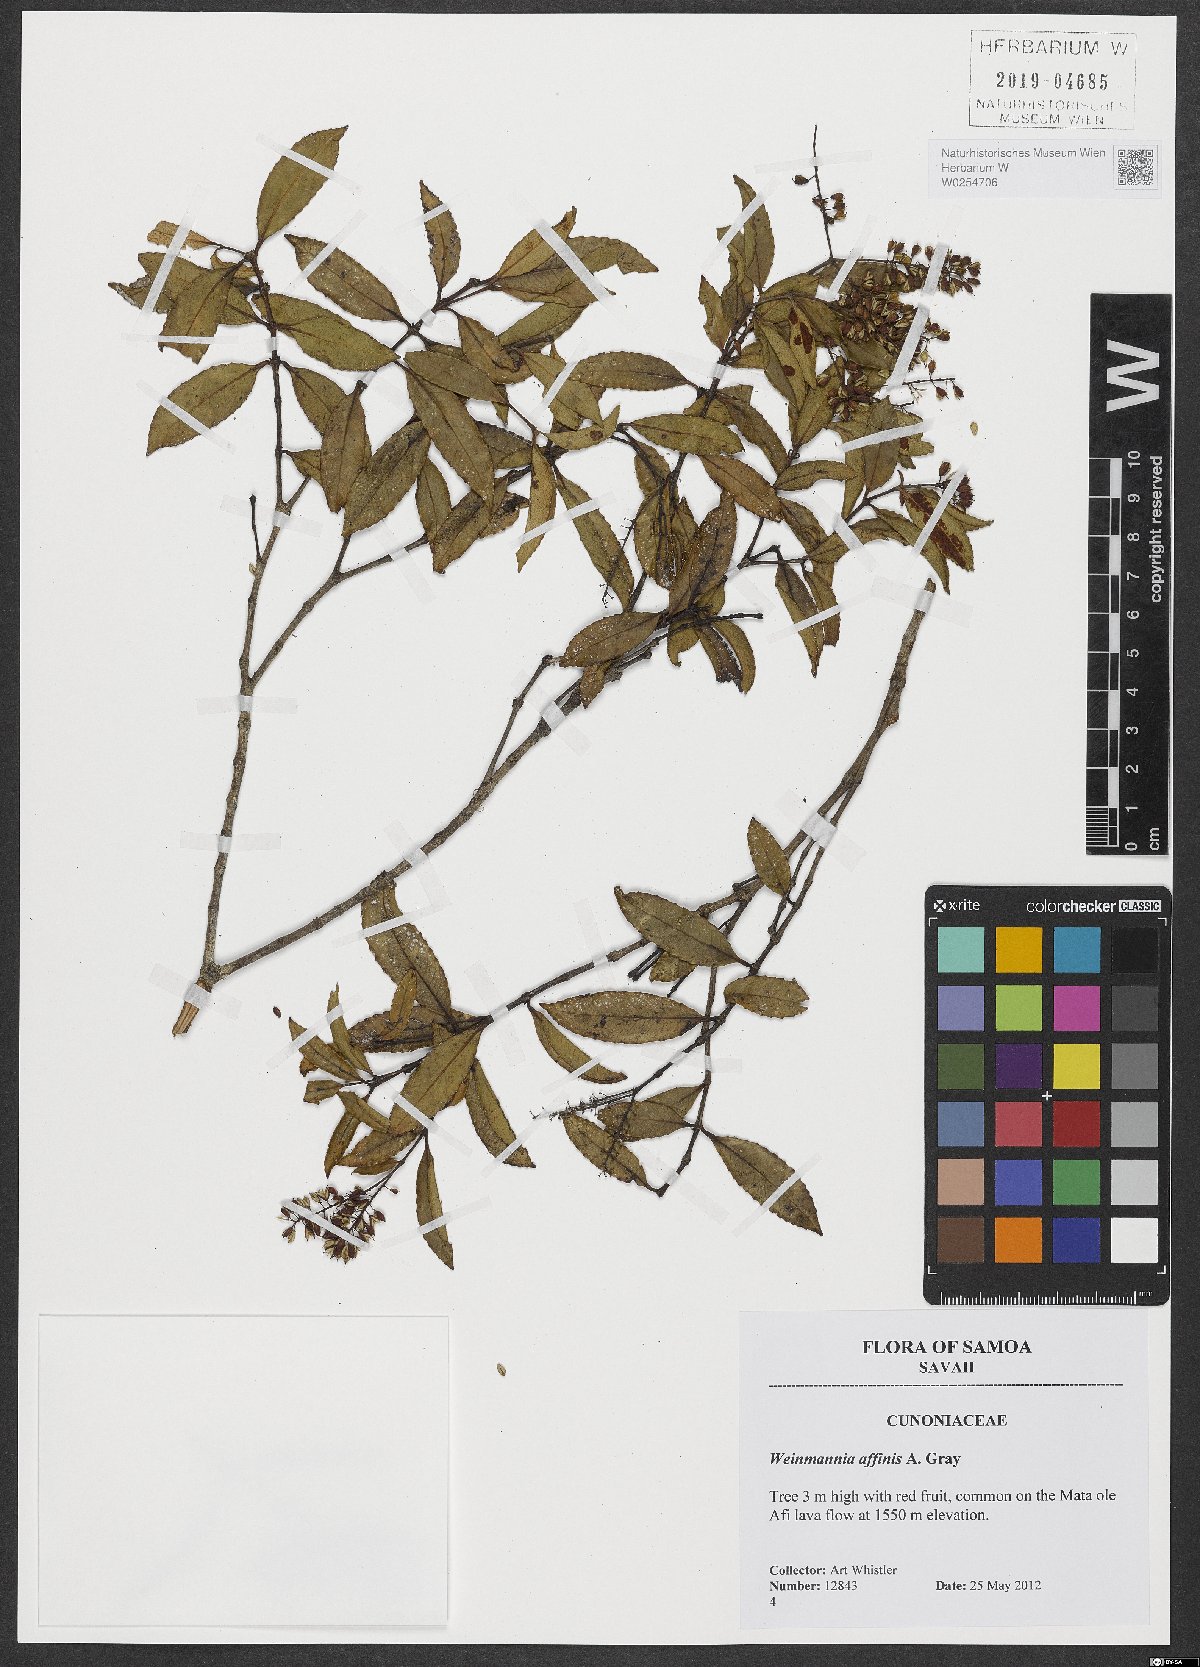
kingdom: Plantae
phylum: Tracheophyta
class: Magnoliopsida
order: Oxalidales
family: Cunoniaceae
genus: Pterophylla
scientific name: Pterophylla affinis
